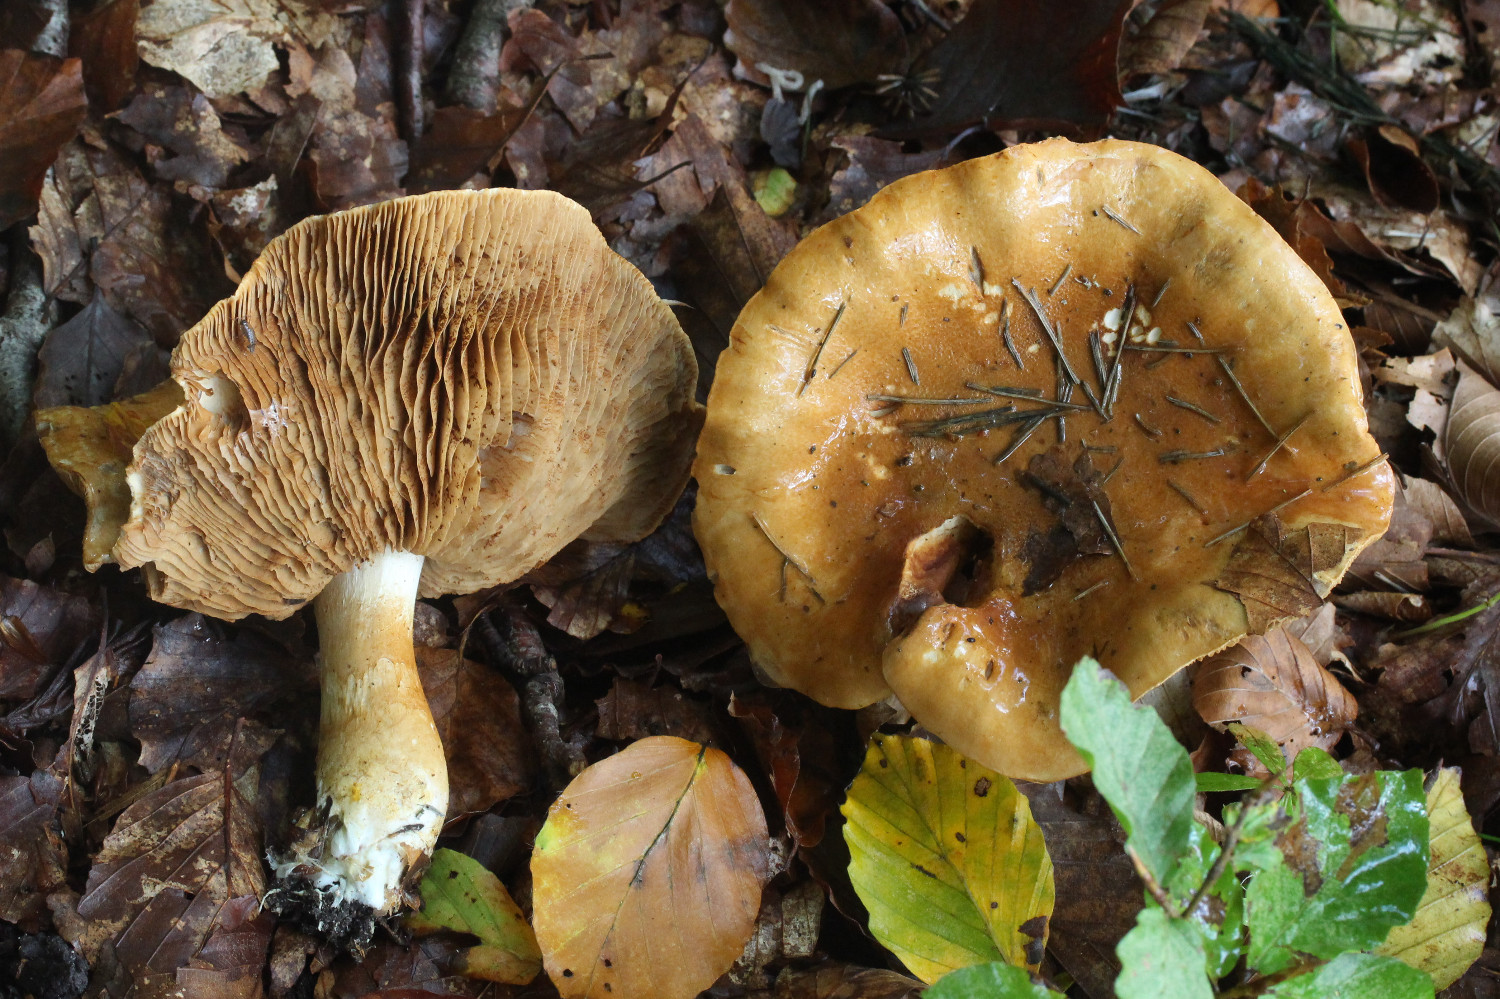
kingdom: Fungi
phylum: Basidiomycota
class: Agaricomycetes
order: Agaricales
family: Cortinariaceae
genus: Phlegmacium
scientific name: Phlegmacium cliduchus
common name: majs-slørhat
